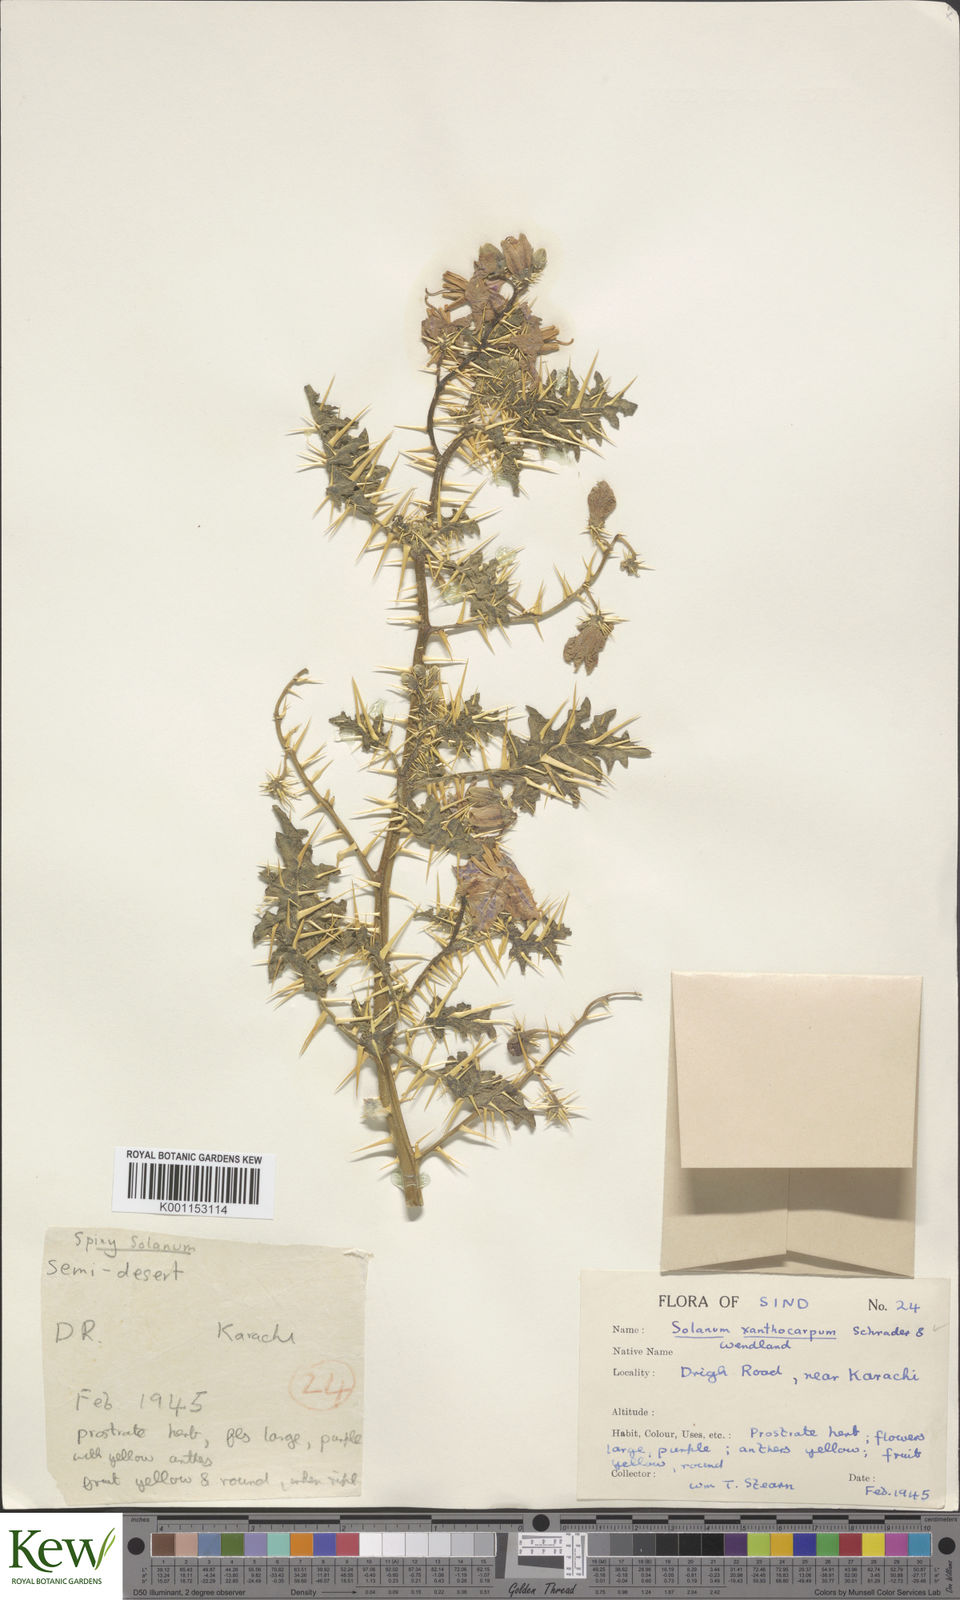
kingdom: Plantae
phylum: Tracheophyta
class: Magnoliopsida
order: Solanales
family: Solanaceae
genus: Solanum
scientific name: Solanum virginianum
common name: Surattense nightshade
